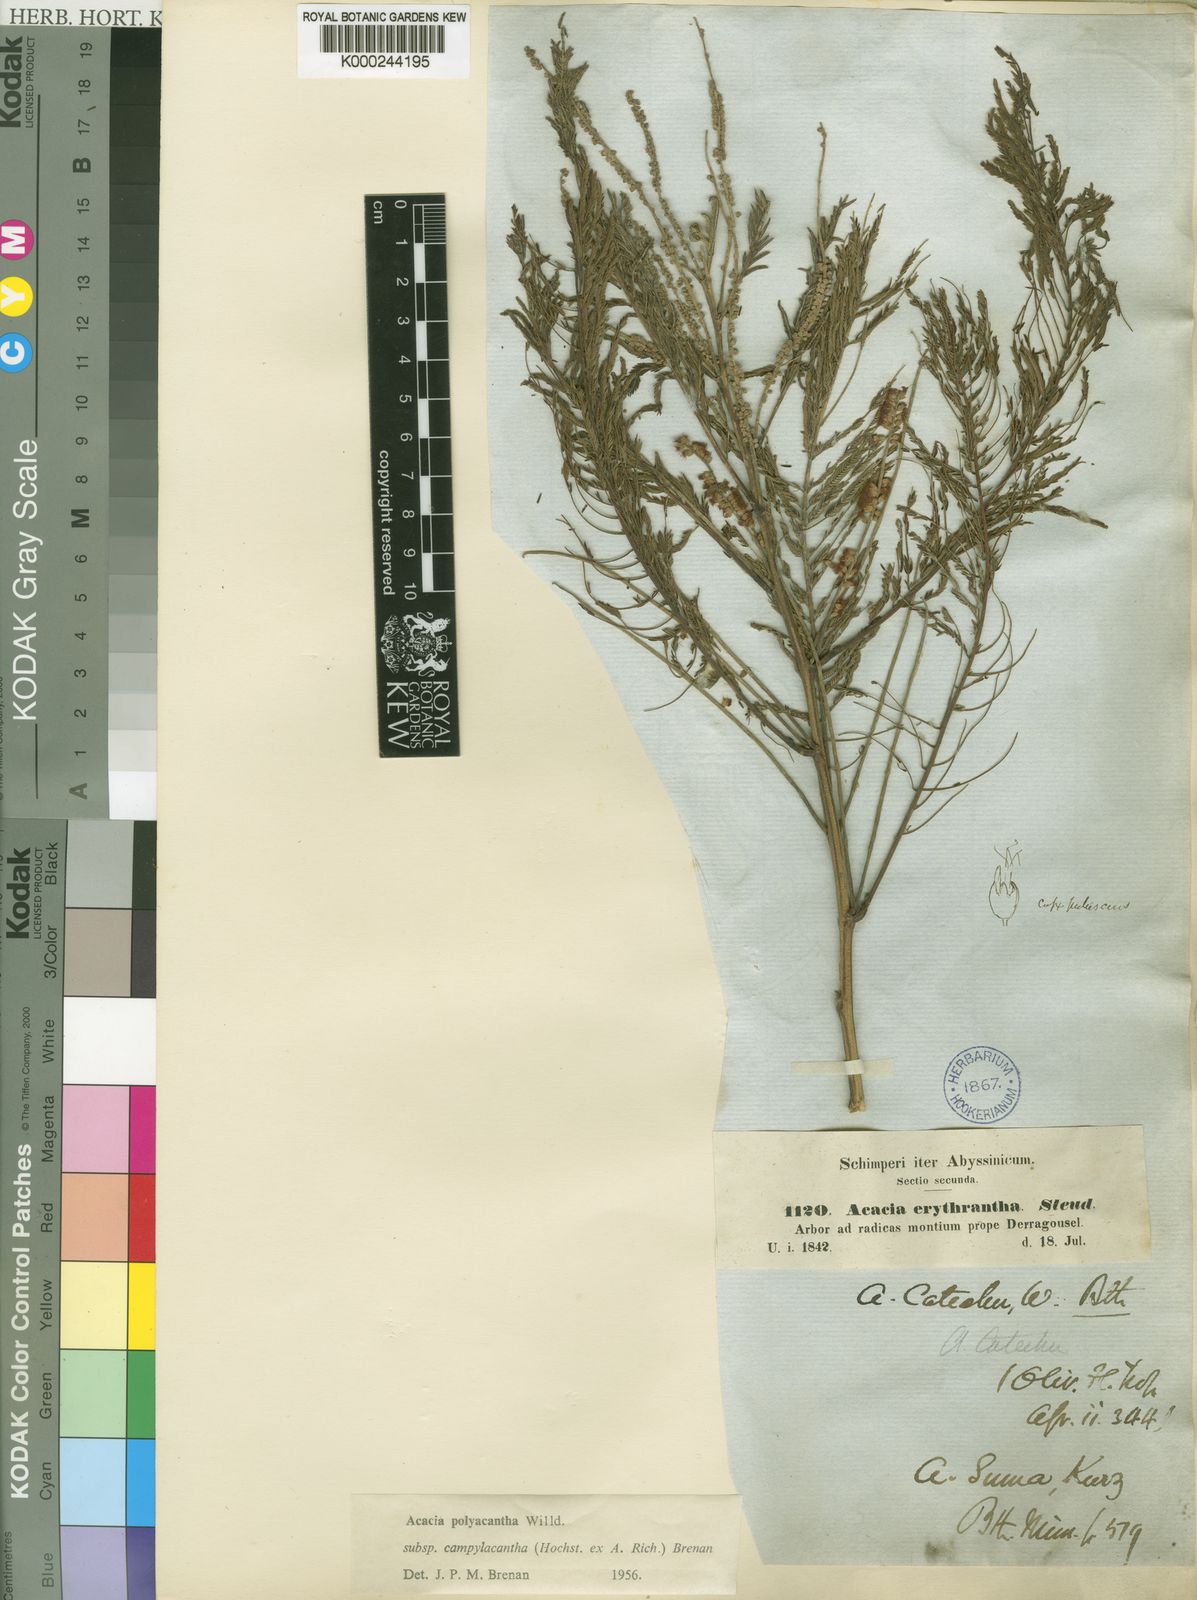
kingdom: Plantae
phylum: Tracheophyta
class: Magnoliopsida
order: Fabales
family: Fabaceae
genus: Senegalia
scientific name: Senegalia polyacantha
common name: Whitethorn
